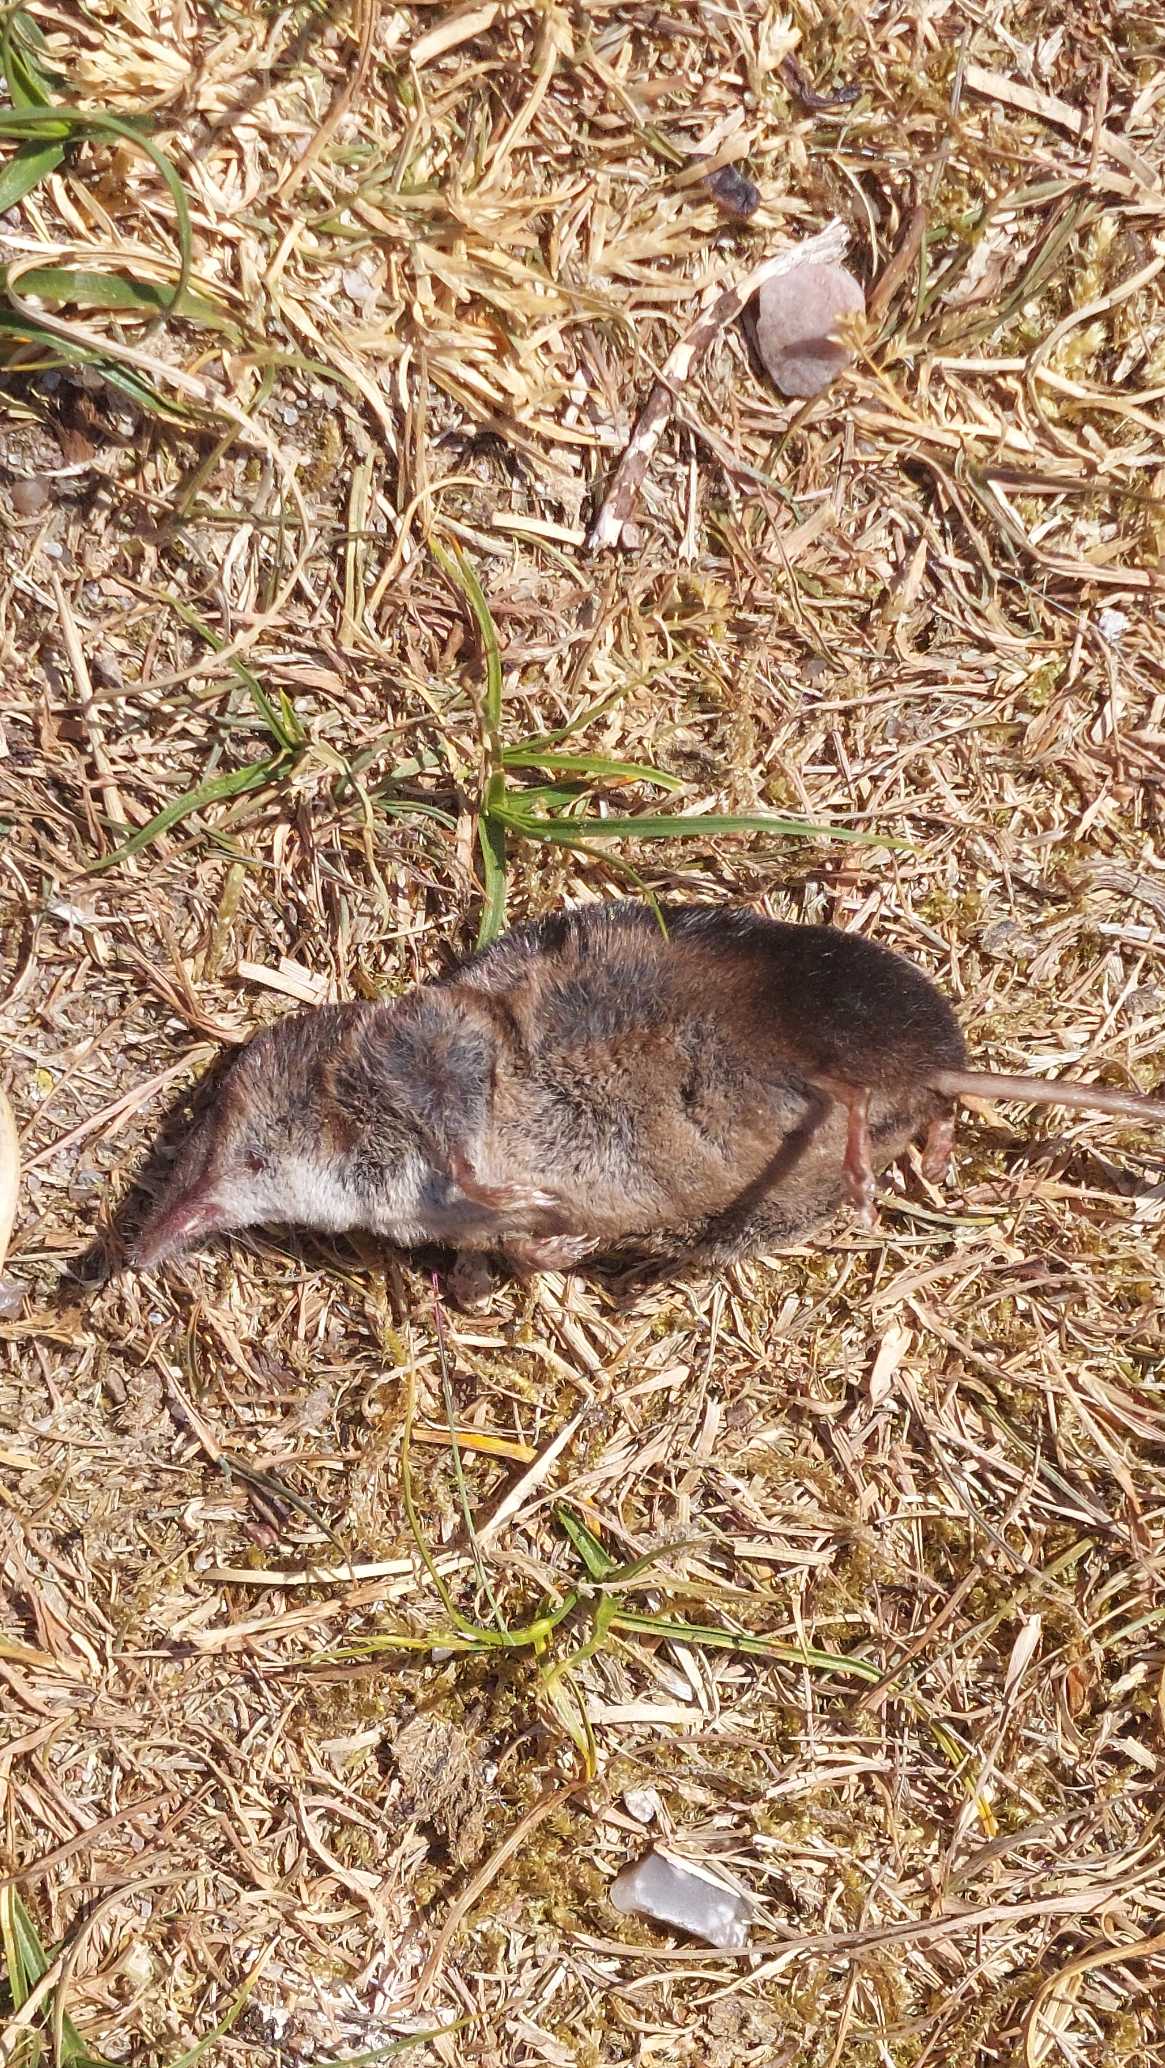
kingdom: Animalia
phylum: Chordata
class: Mammalia
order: Soricomorpha
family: Soricidae
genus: Sorex
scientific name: Sorex araneus
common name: Almindelig spidsmus
